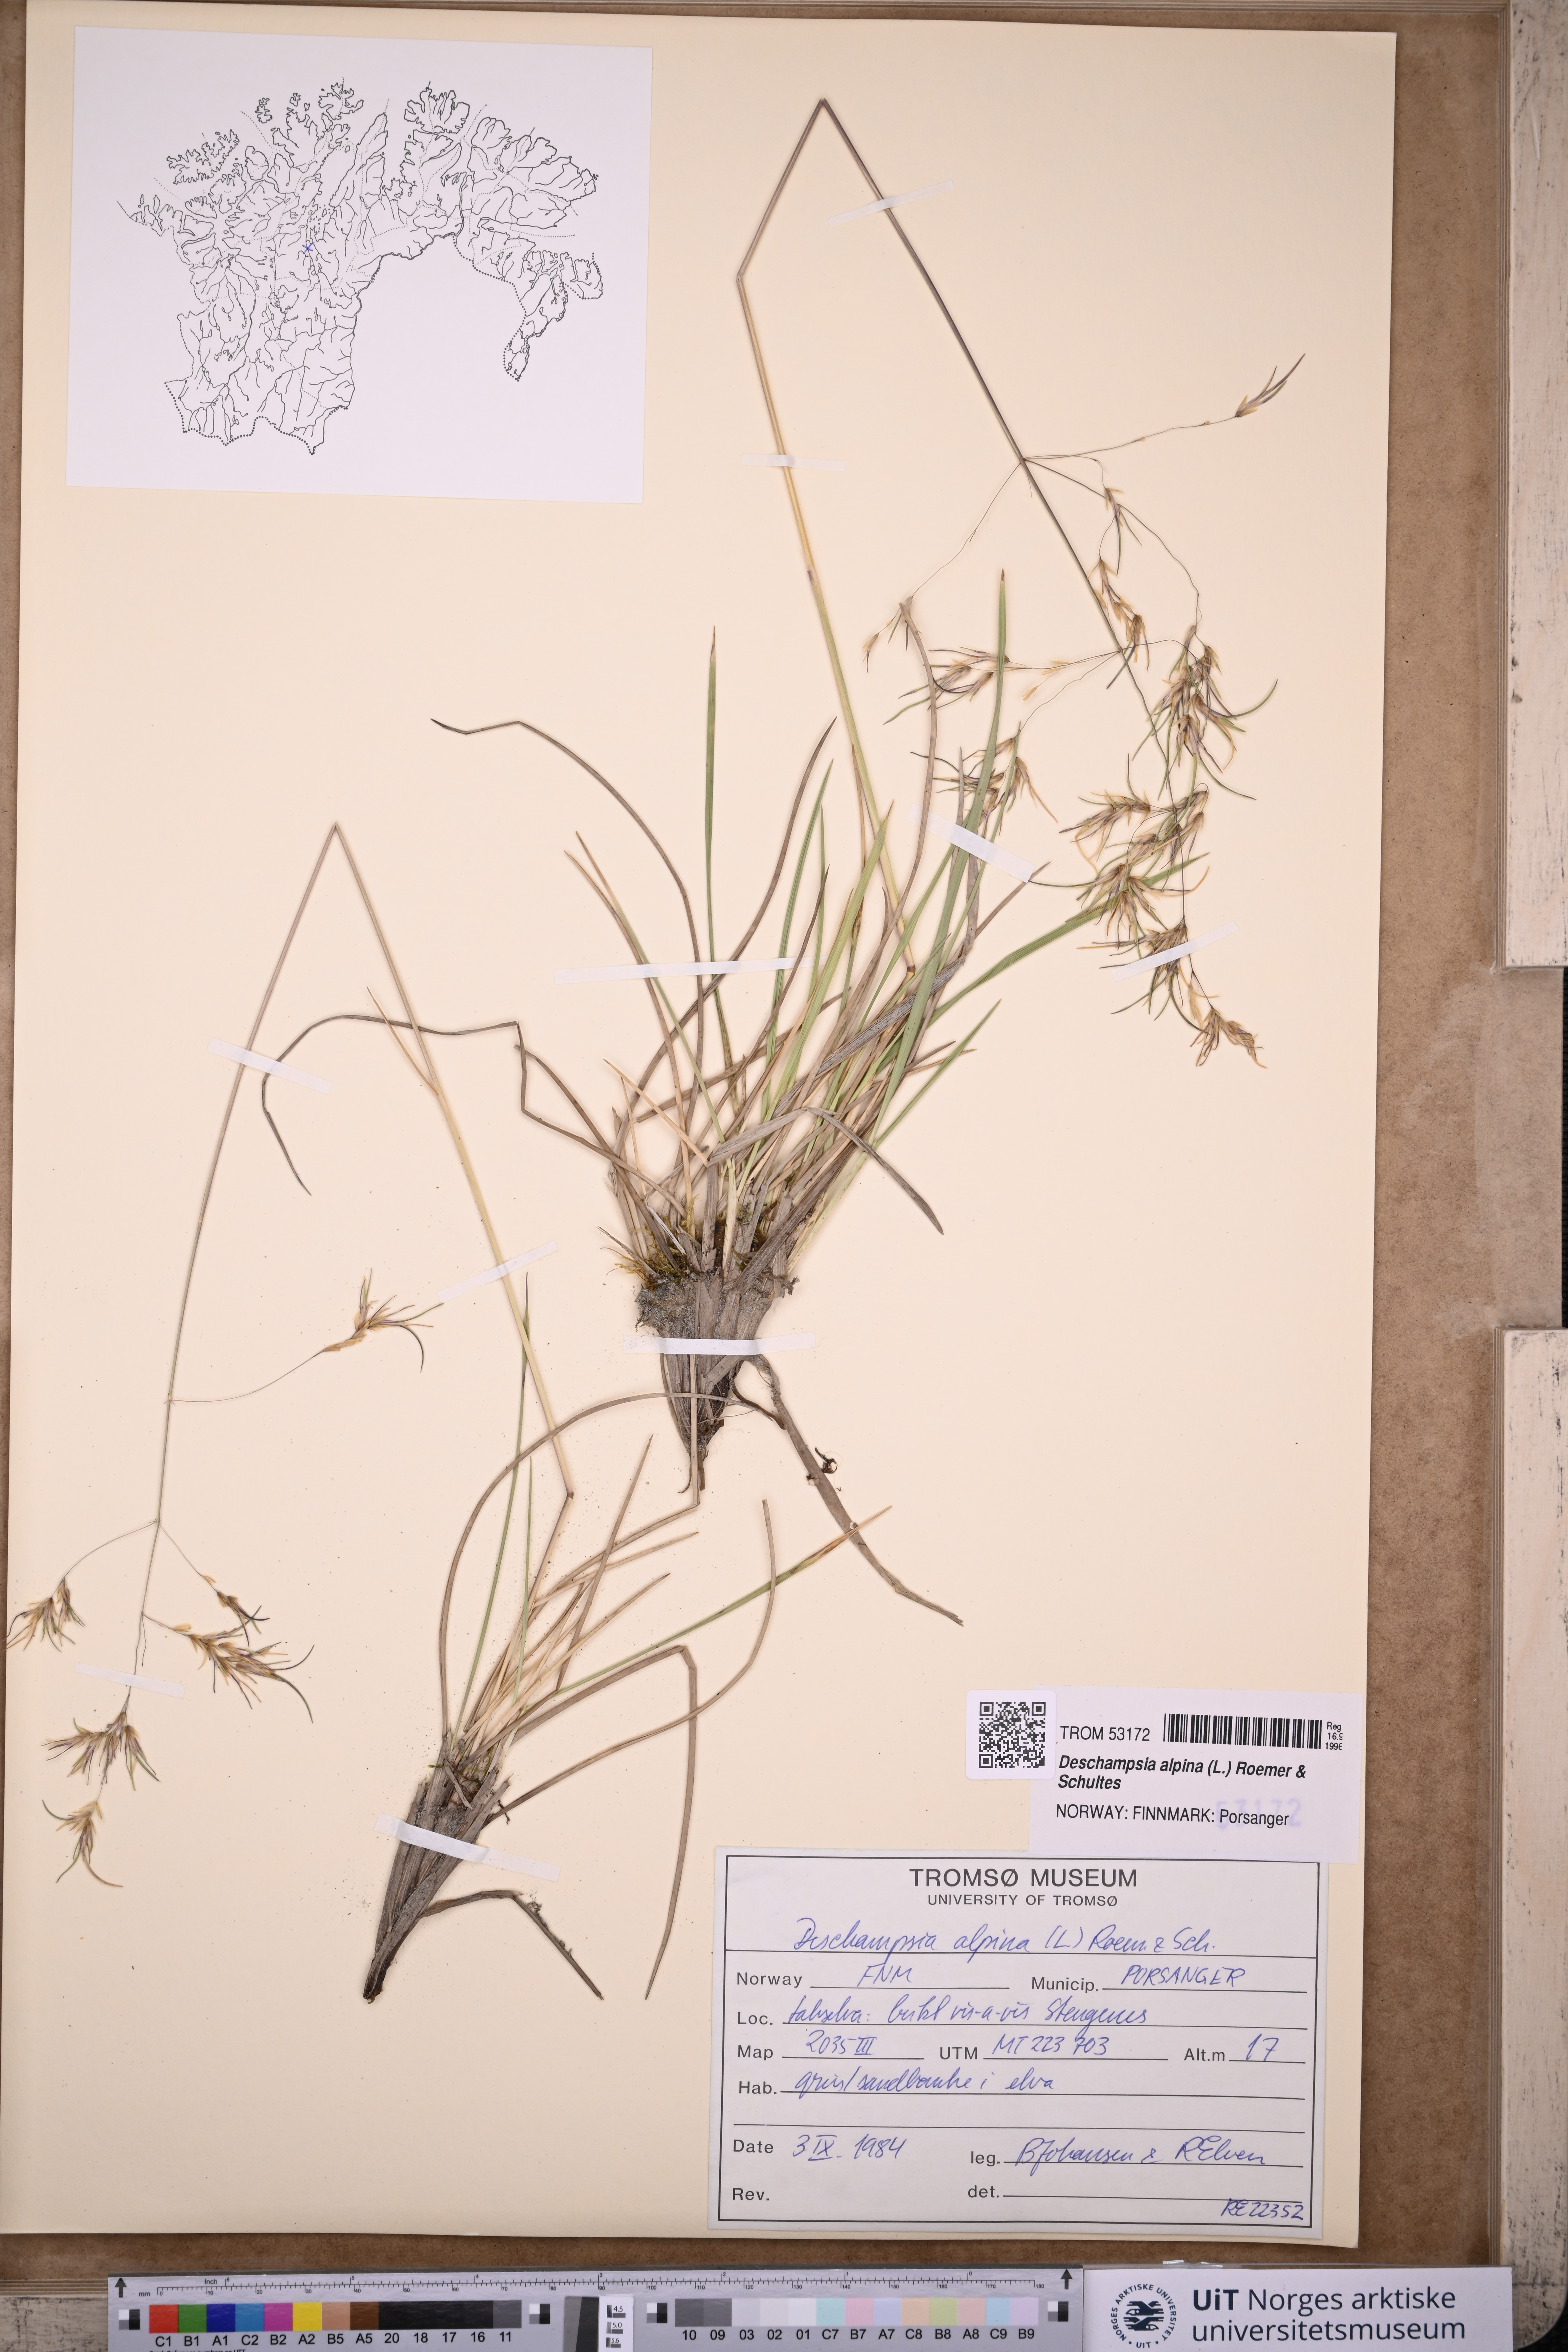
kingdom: Plantae
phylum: Tracheophyta
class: Liliopsida
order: Poales
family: Poaceae
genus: Deschampsia
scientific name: Deschampsia cespitosa
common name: Tufted hair-grass
